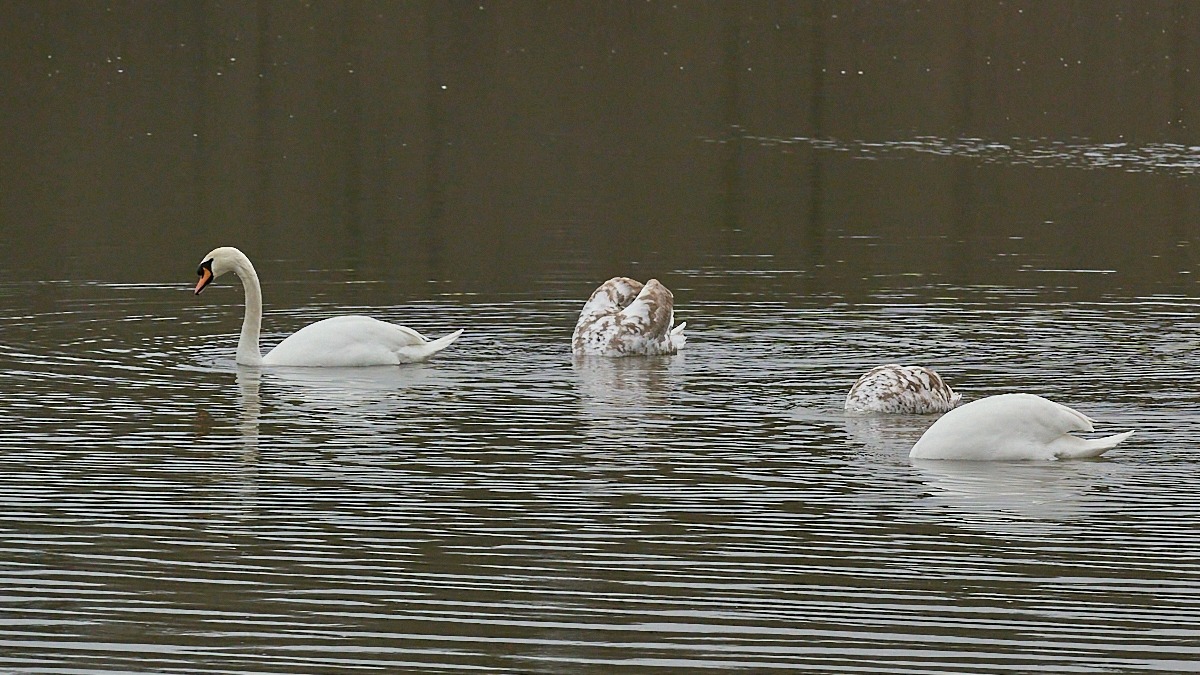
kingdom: Animalia
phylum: Chordata
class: Aves
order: Anseriformes
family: Anatidae
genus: Cygnus
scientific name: Cygnus olor
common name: Knopsvane
